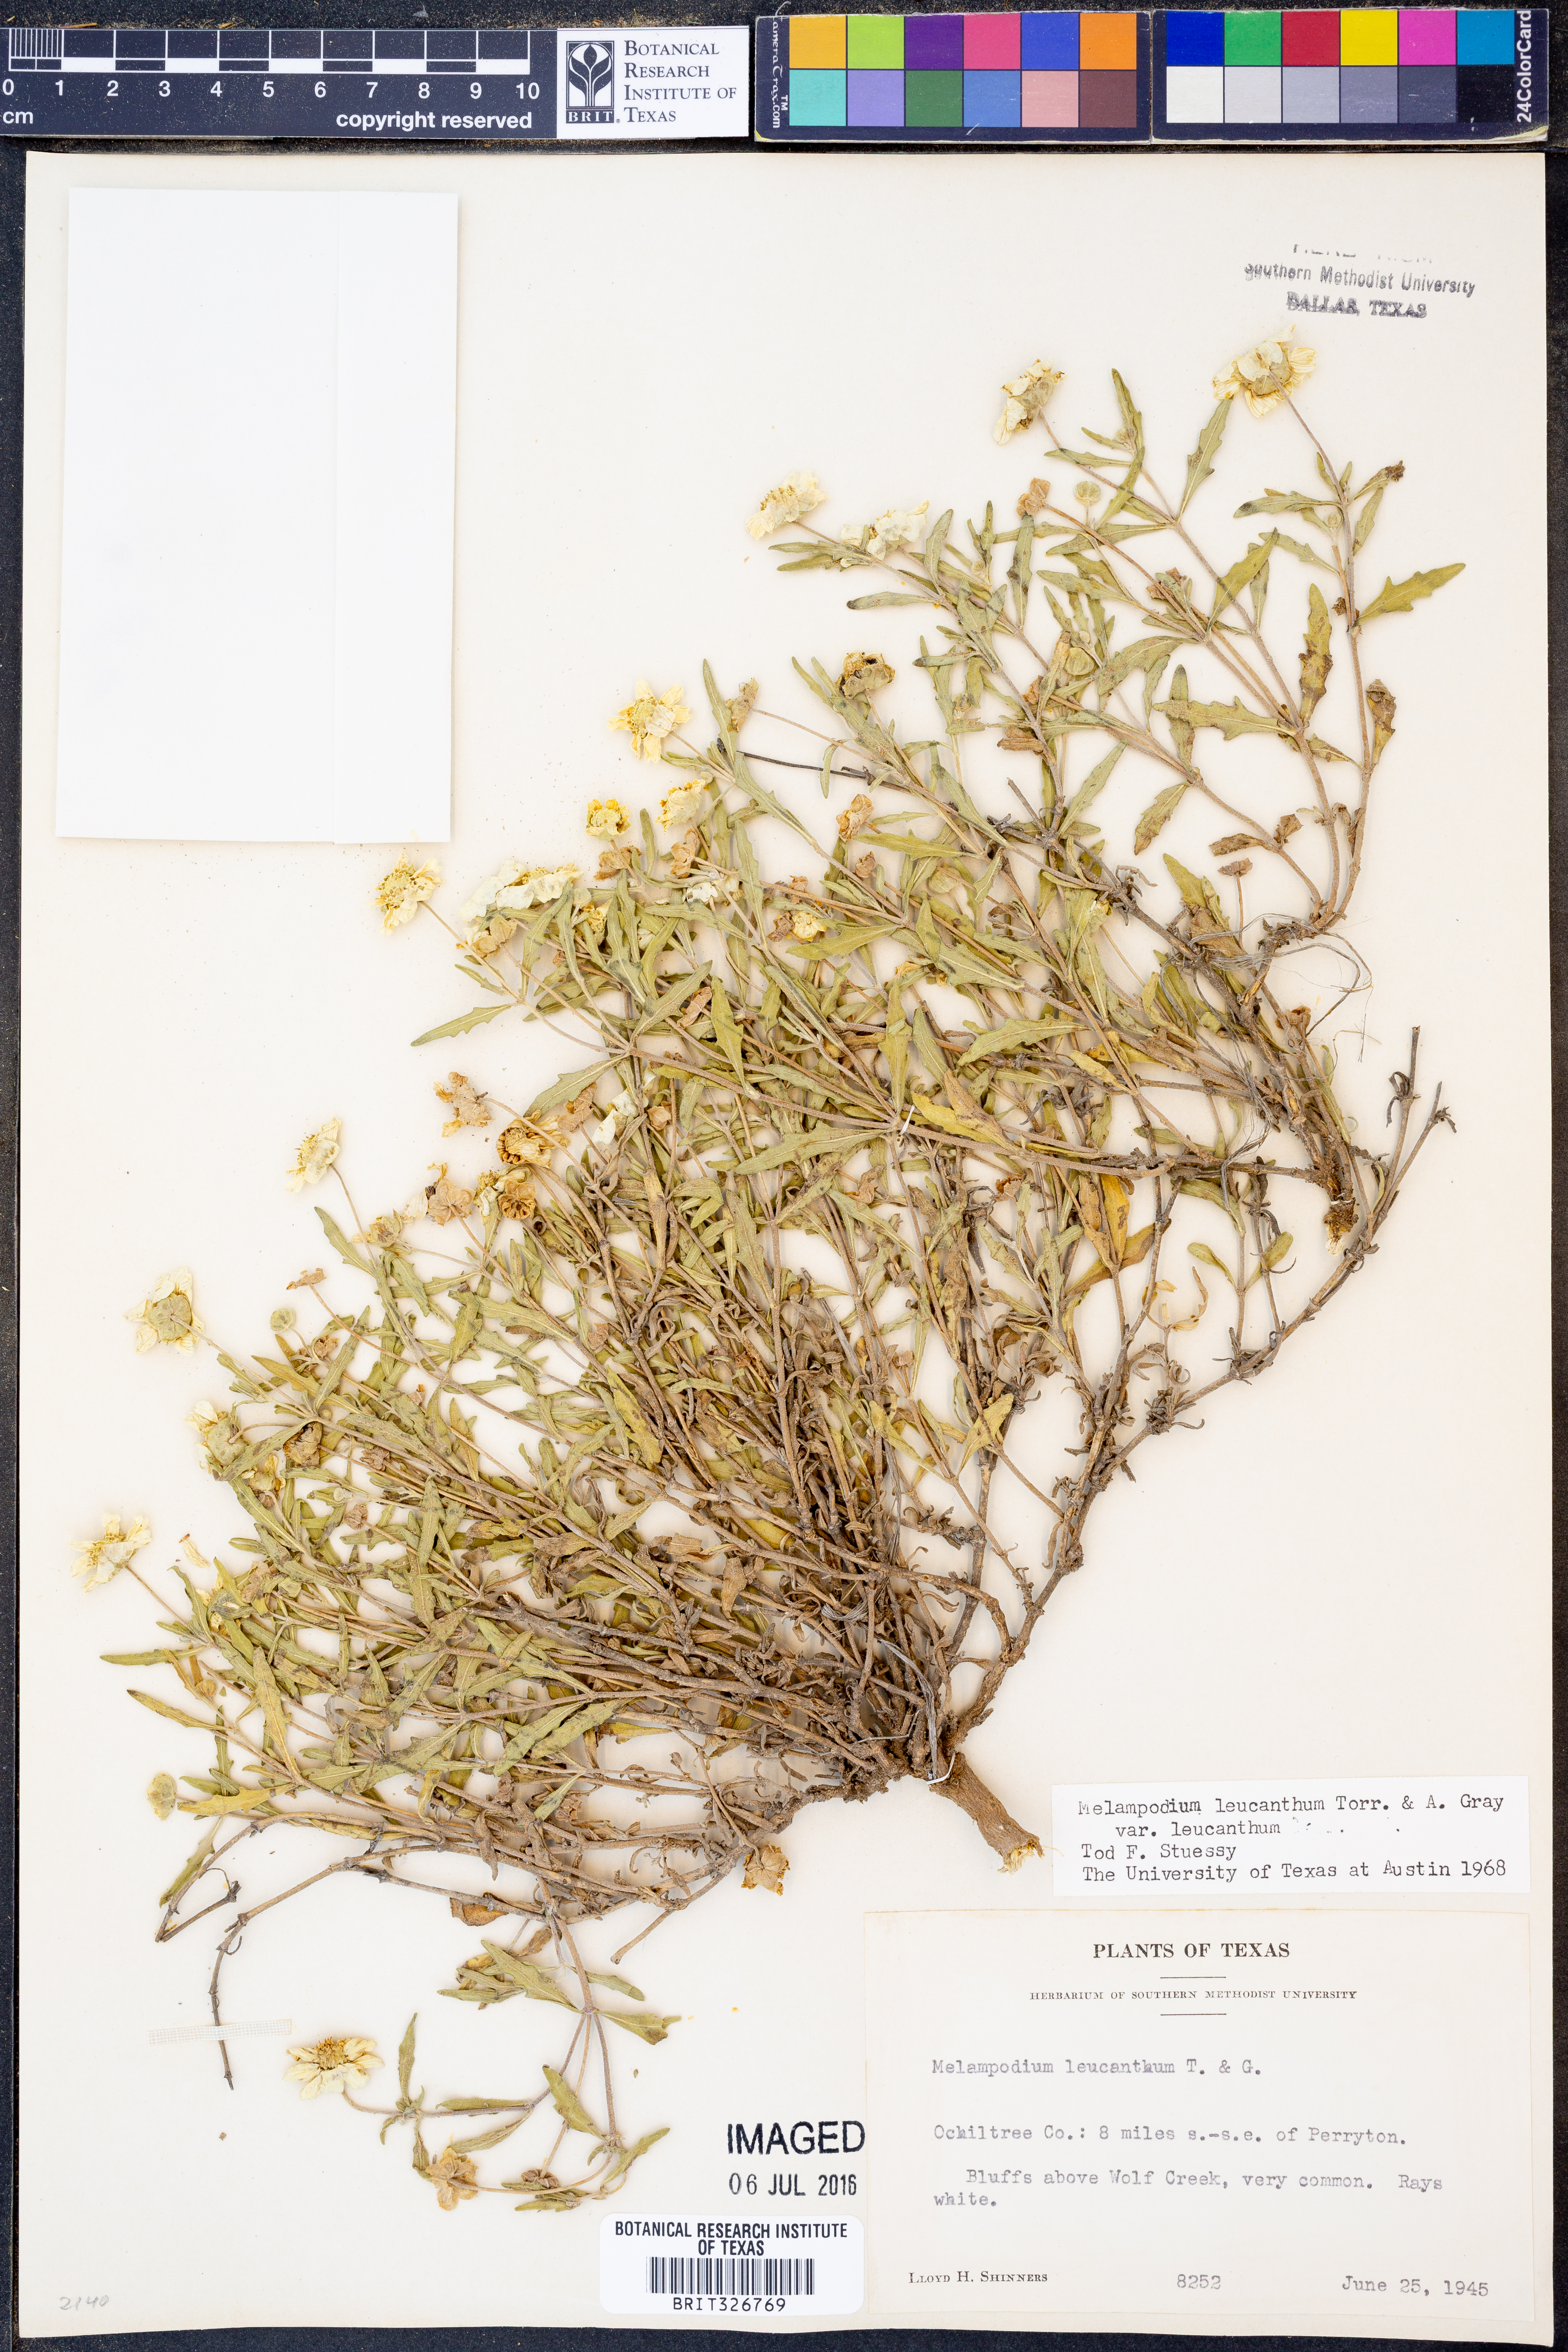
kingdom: Plantae
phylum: Tracheophyta
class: Magnoliopsida
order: Asterales
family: Asteraceae
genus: Melampodium
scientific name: Melampodium leucanthum
